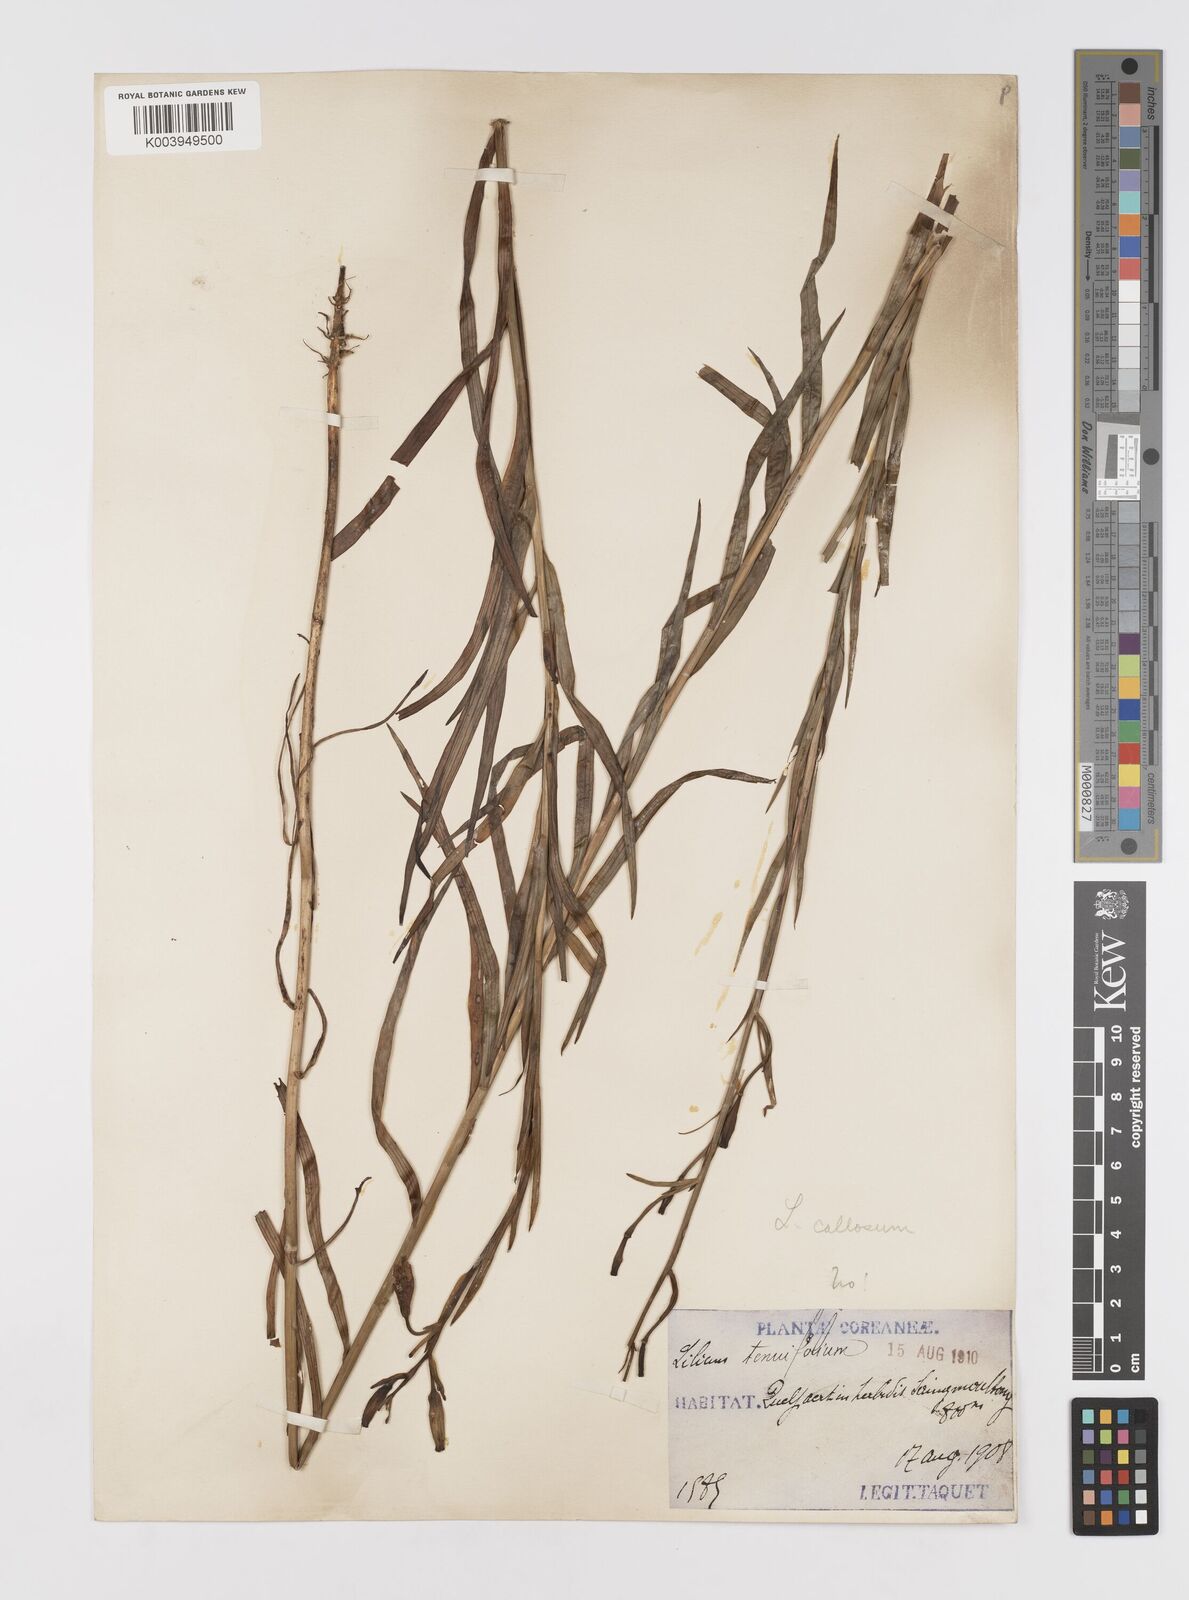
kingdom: Plantae
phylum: Tracheophyta
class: Liliopsida
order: Liliales
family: Liliaceae
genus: Lilium
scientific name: Lilium callosum
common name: Slim-stem lily
